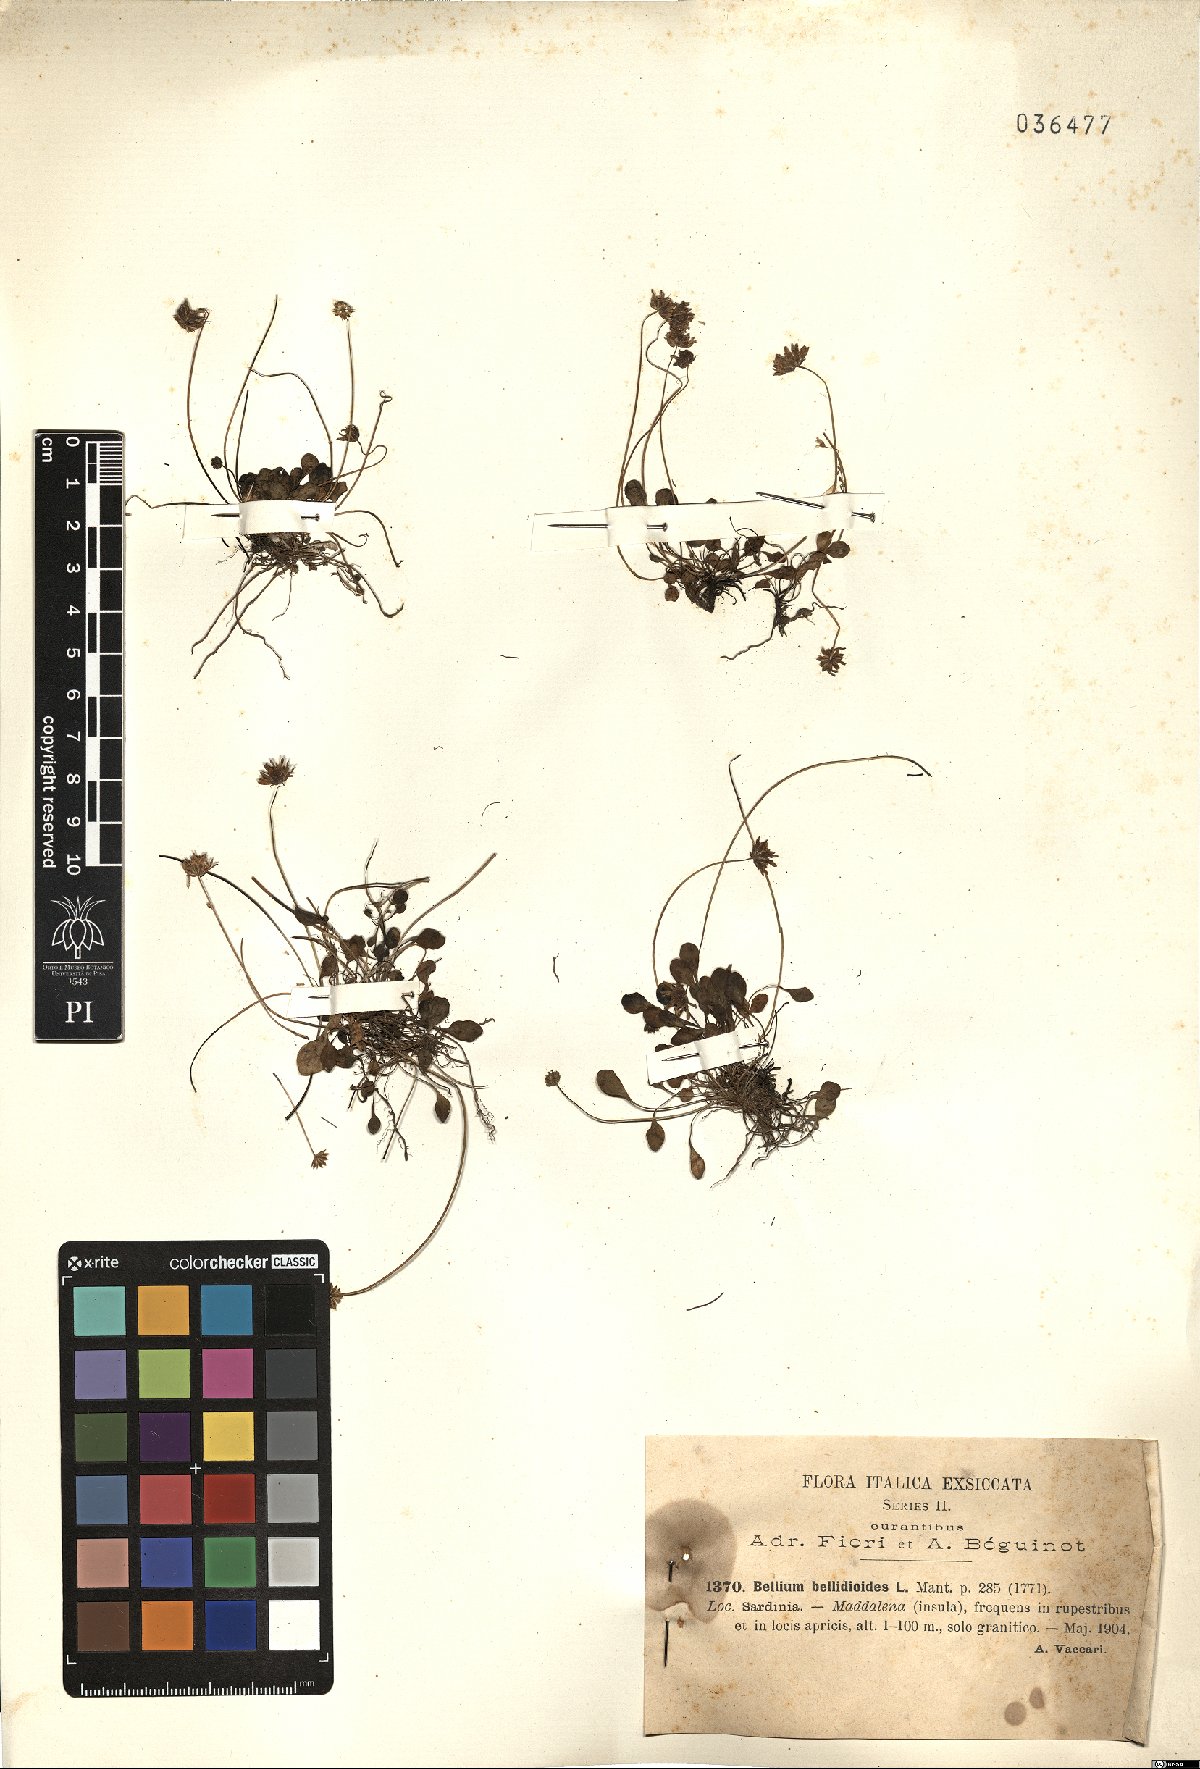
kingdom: Plantae
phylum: Tracheophyta
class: Magnoliopsida
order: Asterales
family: Asteraceae
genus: Bellium
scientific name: Bellium bellidioides
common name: False daisy
